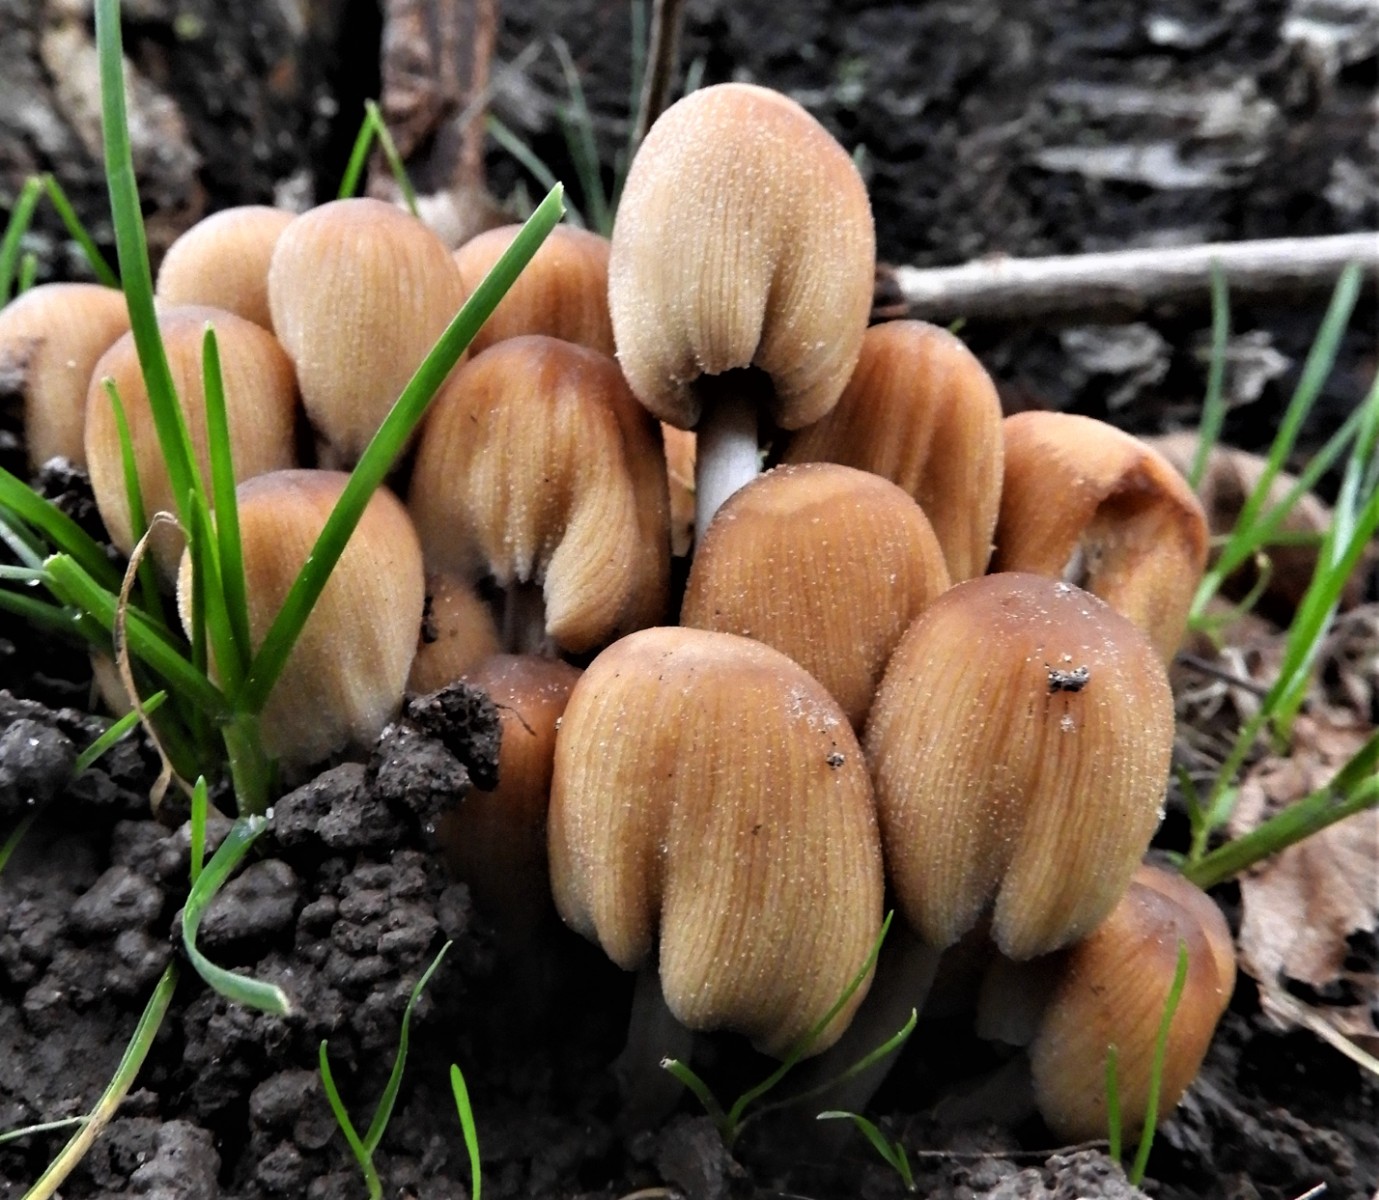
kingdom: Fungi
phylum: Basidiomycota
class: Agaricomycetes
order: Agaricales
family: Psathyrellaceae
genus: Coprinellus
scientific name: Coprinellus micaceus
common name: glimmer-blækhat
